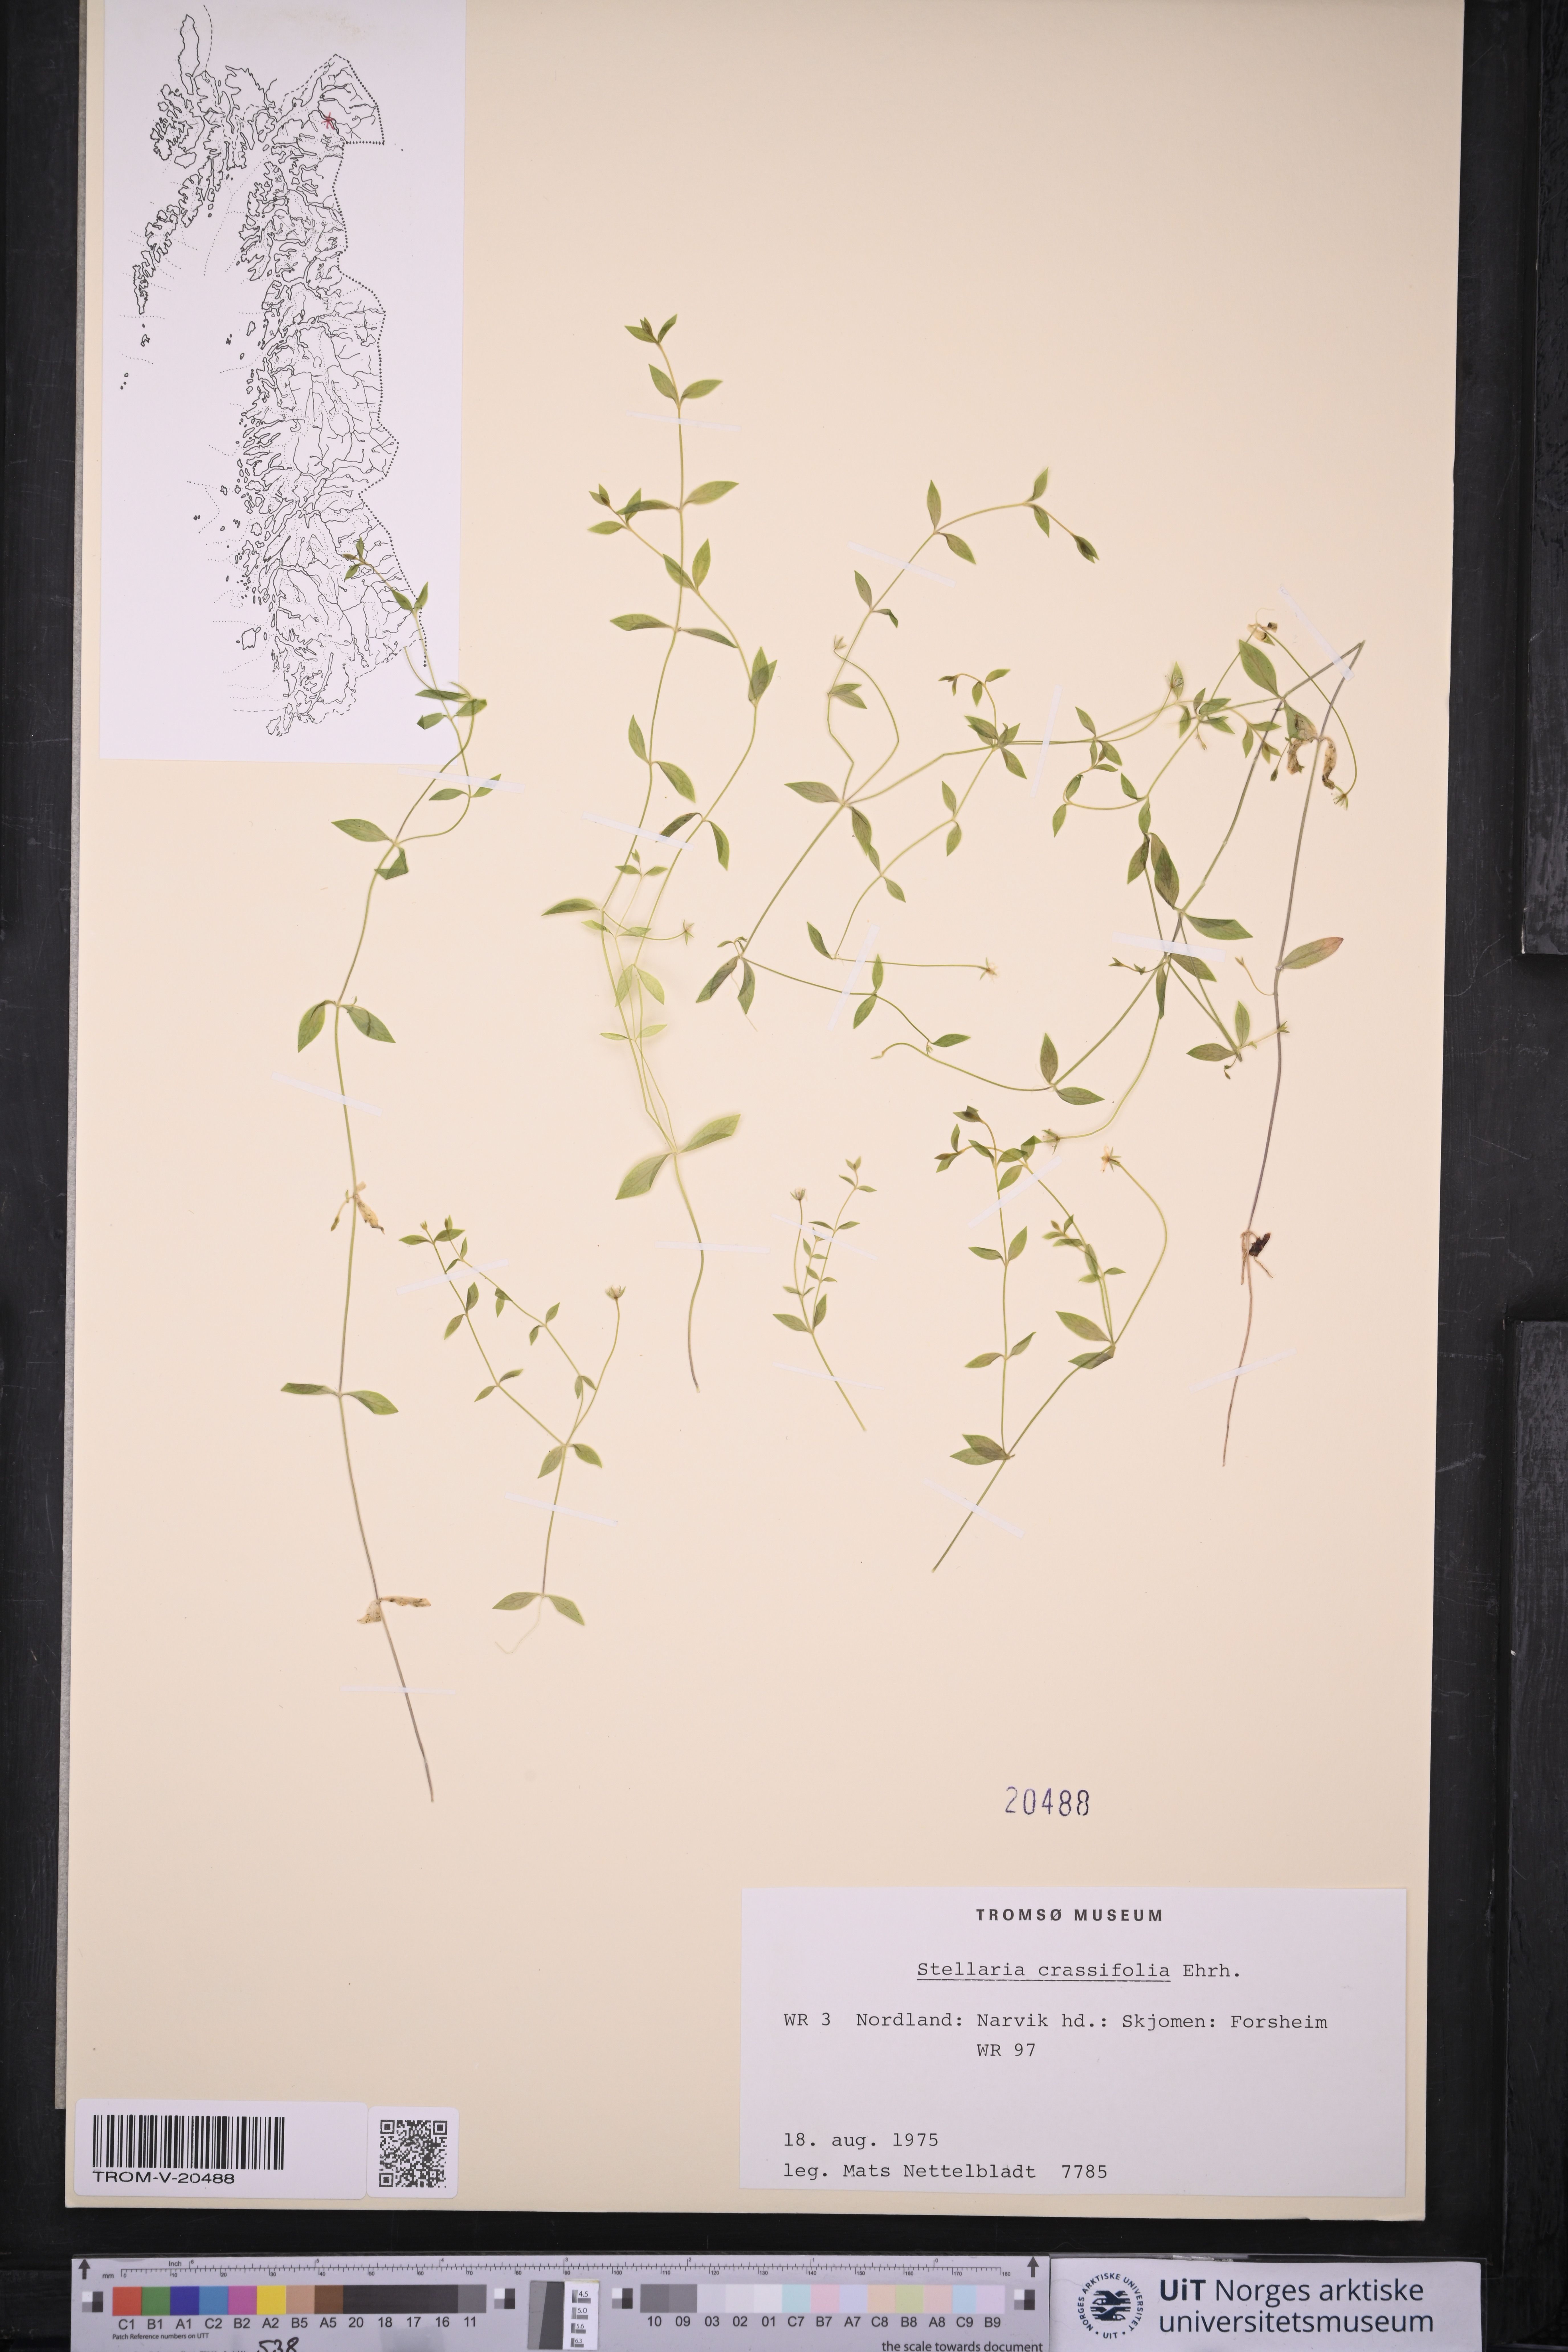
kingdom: Plantae
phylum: Tracheophyta
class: Magnoliopsida
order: Caryophyllales
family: Caryophyllaceae
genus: Stellaria
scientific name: Stellaria crassifolia
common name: Fleshy starwort
